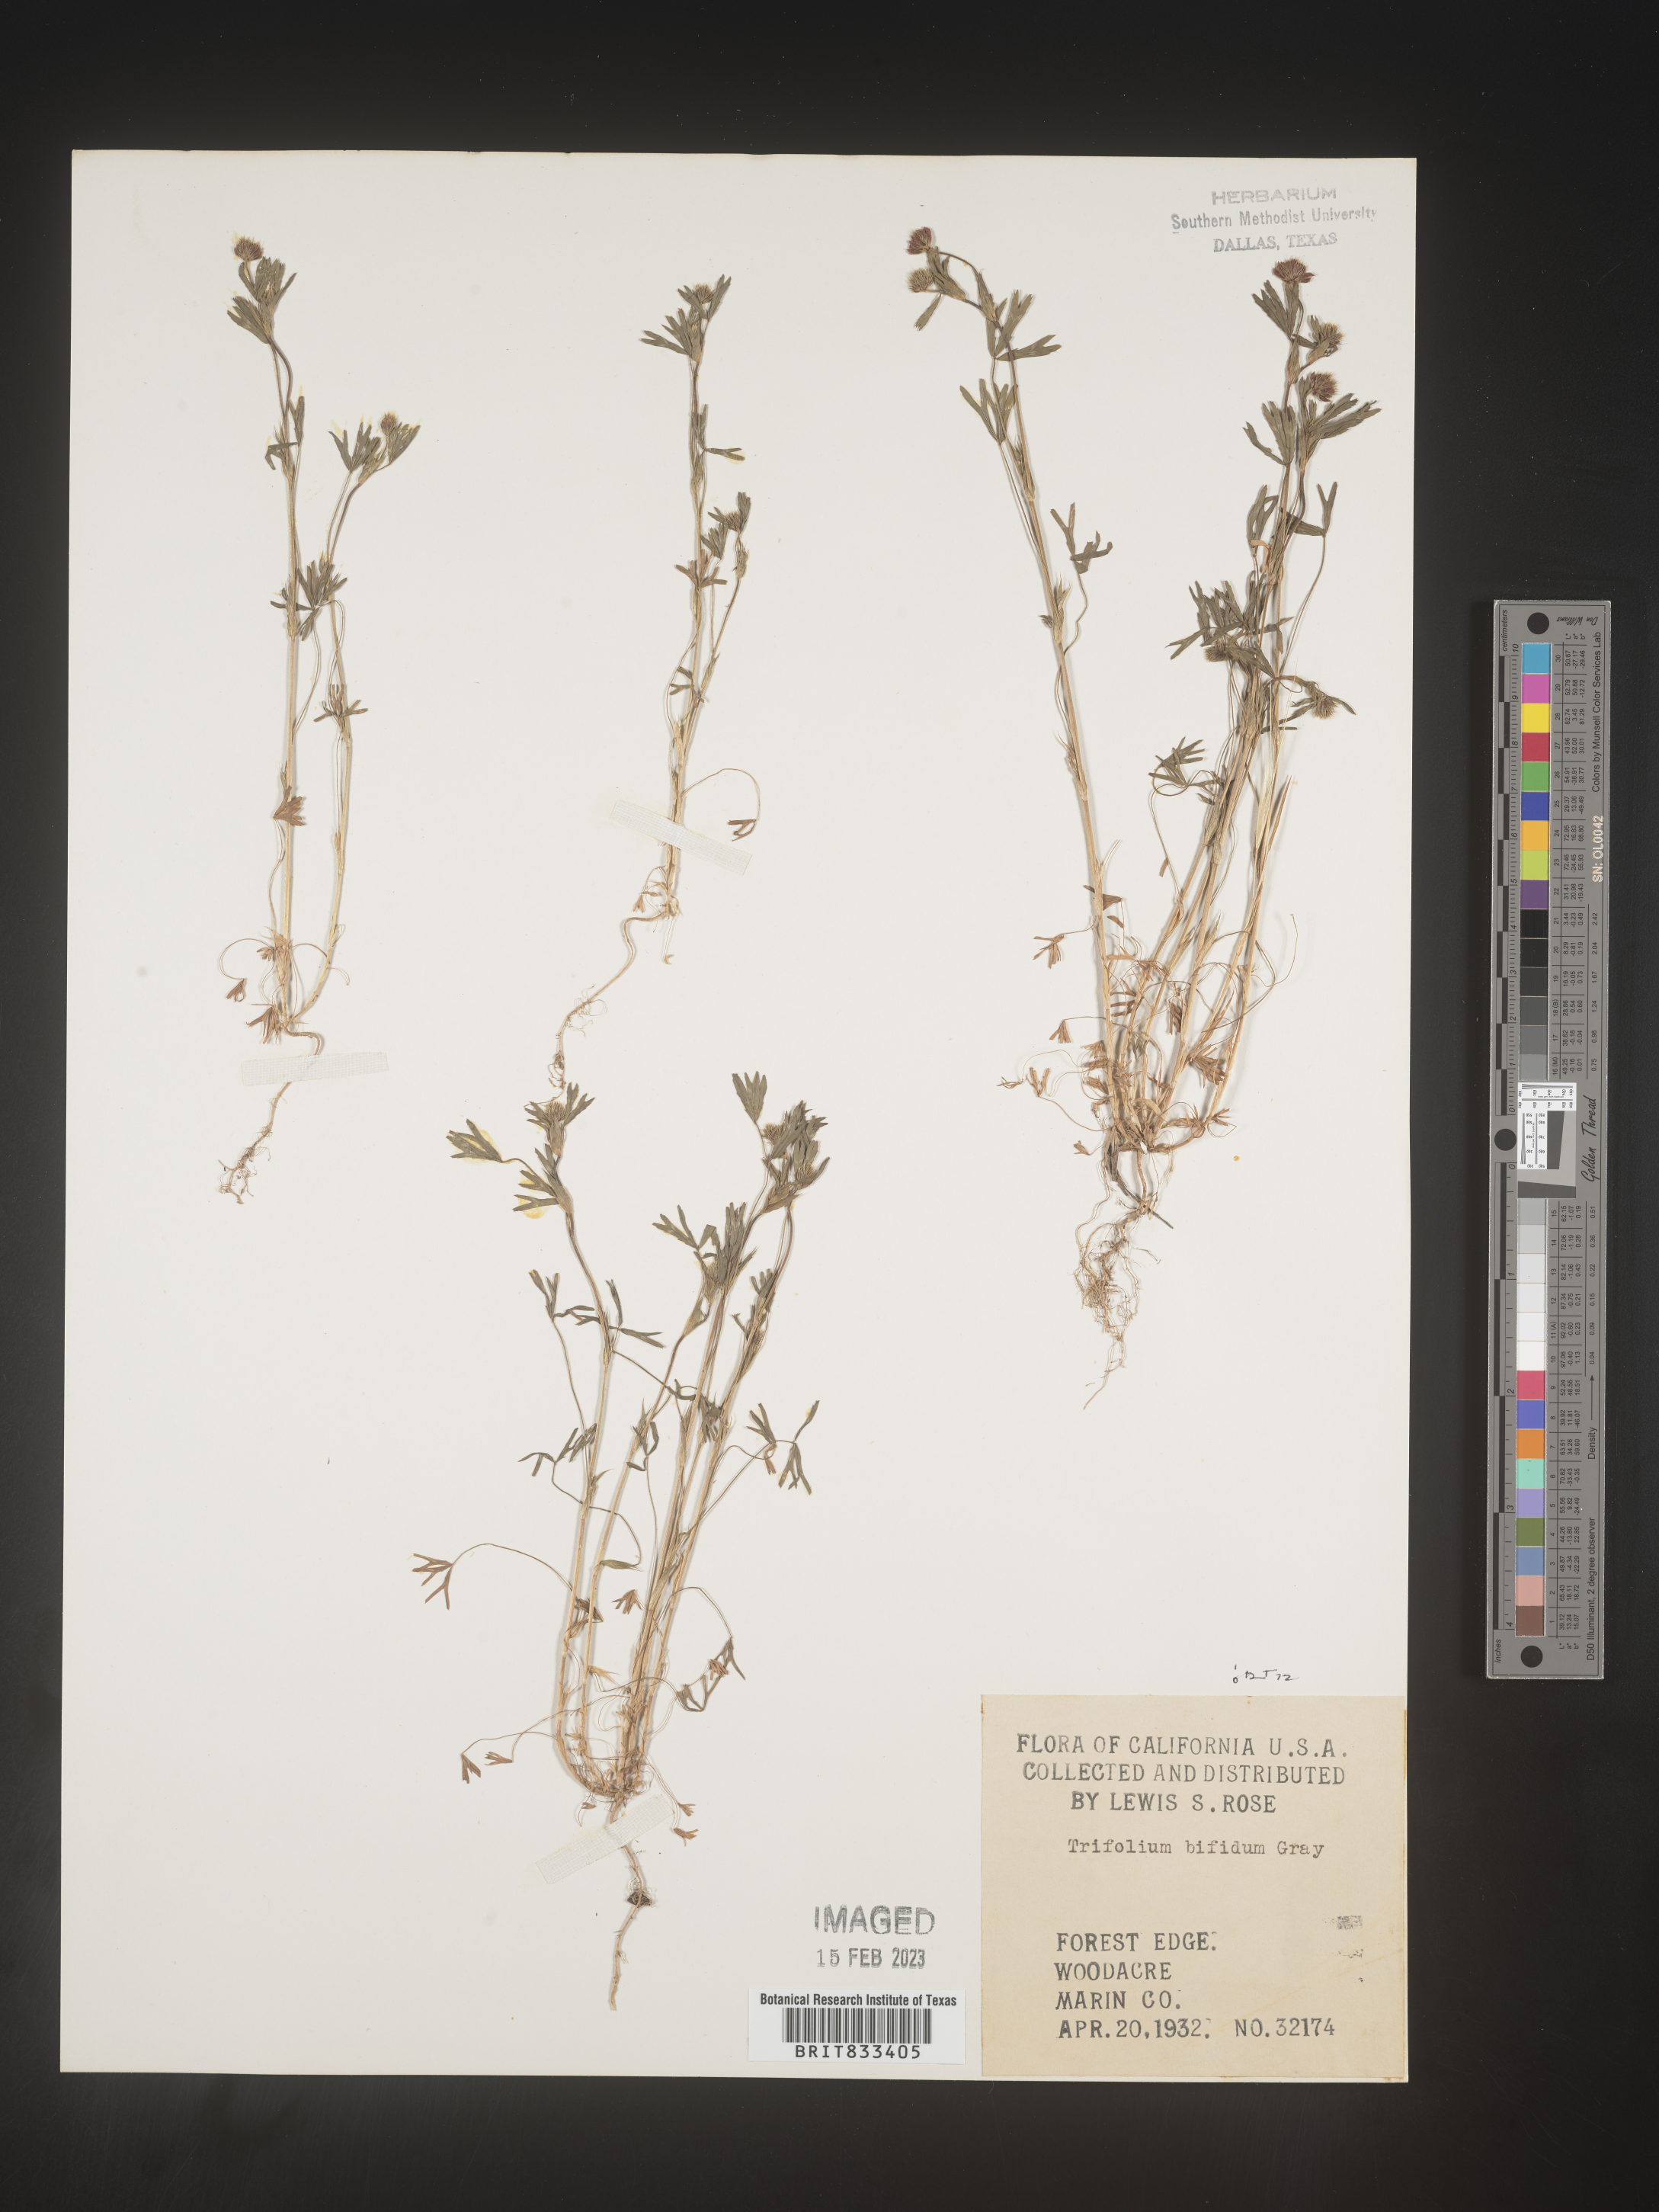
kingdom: Plantae
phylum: Tracheophyta
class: Magnoliopsida
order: Fabales
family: Fabaceae
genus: Trifolium
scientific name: Trifolium
